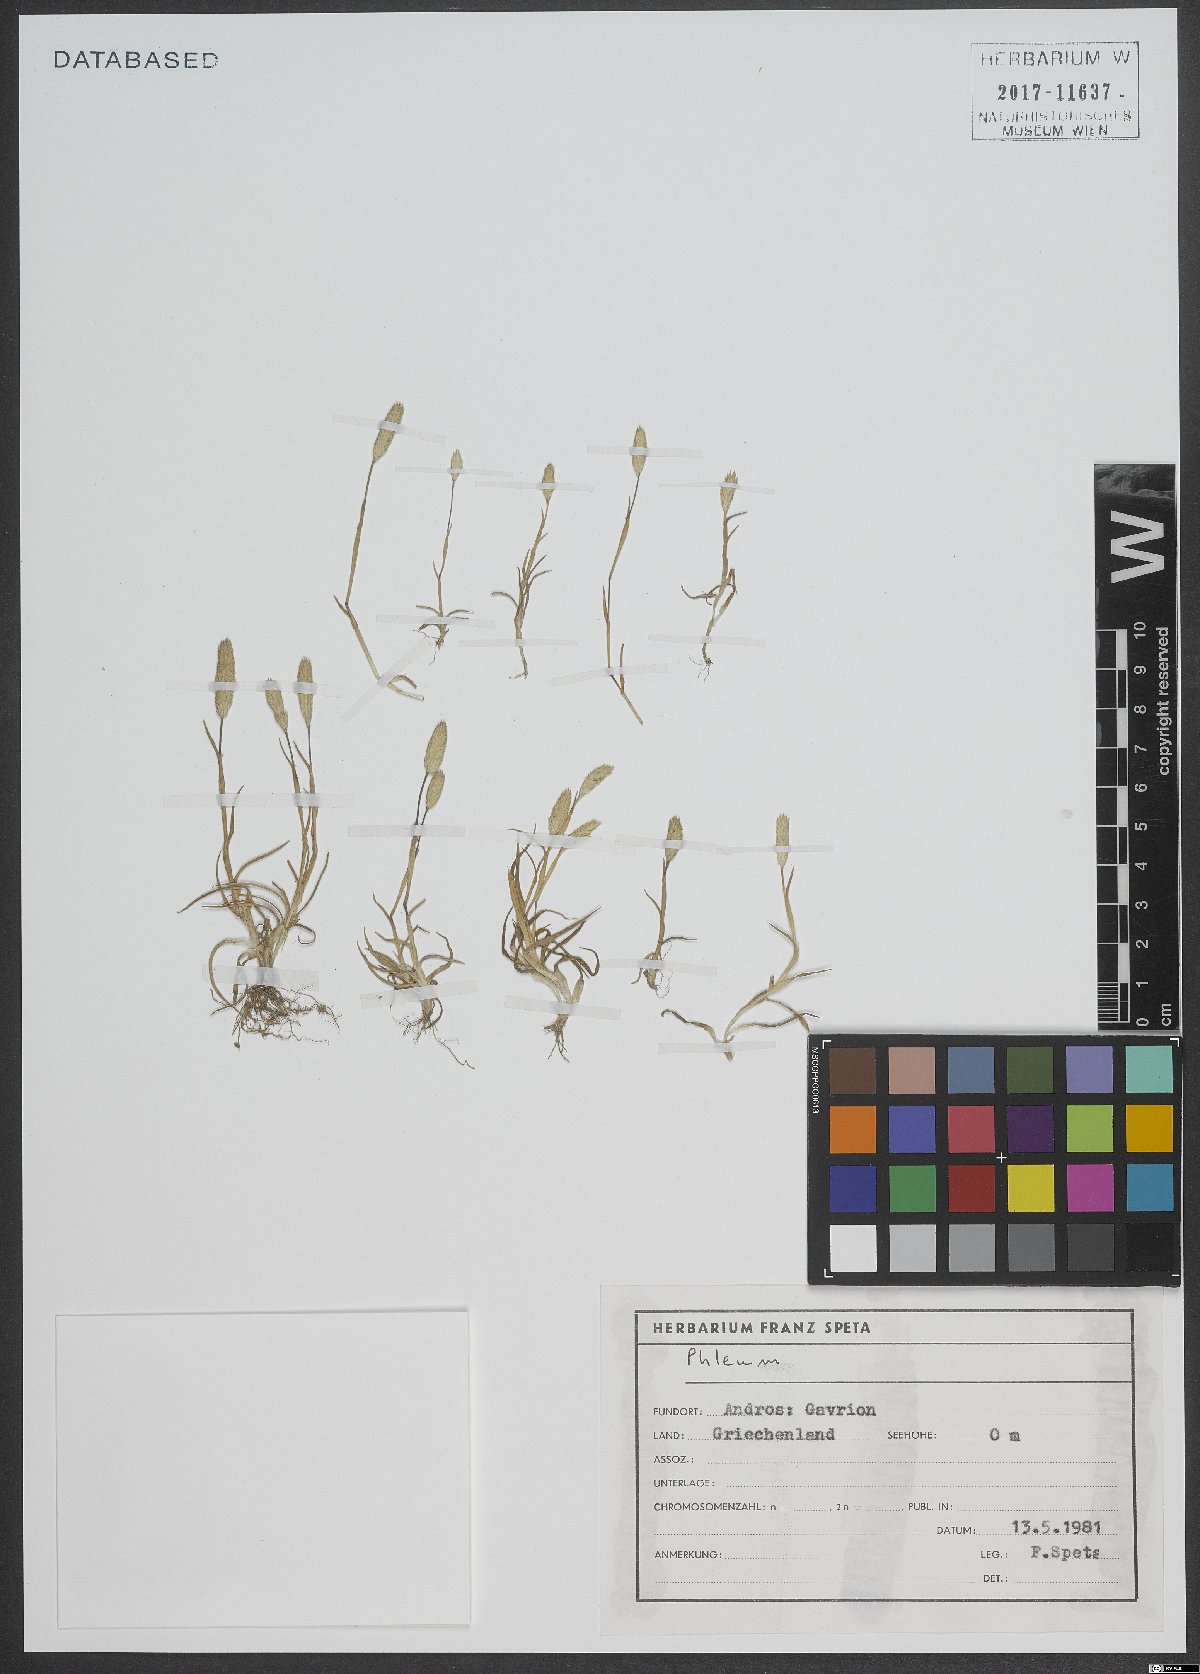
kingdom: Plantae
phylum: Tracheophyta
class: Liliopsida
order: Poales
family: Poaceae
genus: Phleum
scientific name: Phleum exaratum
